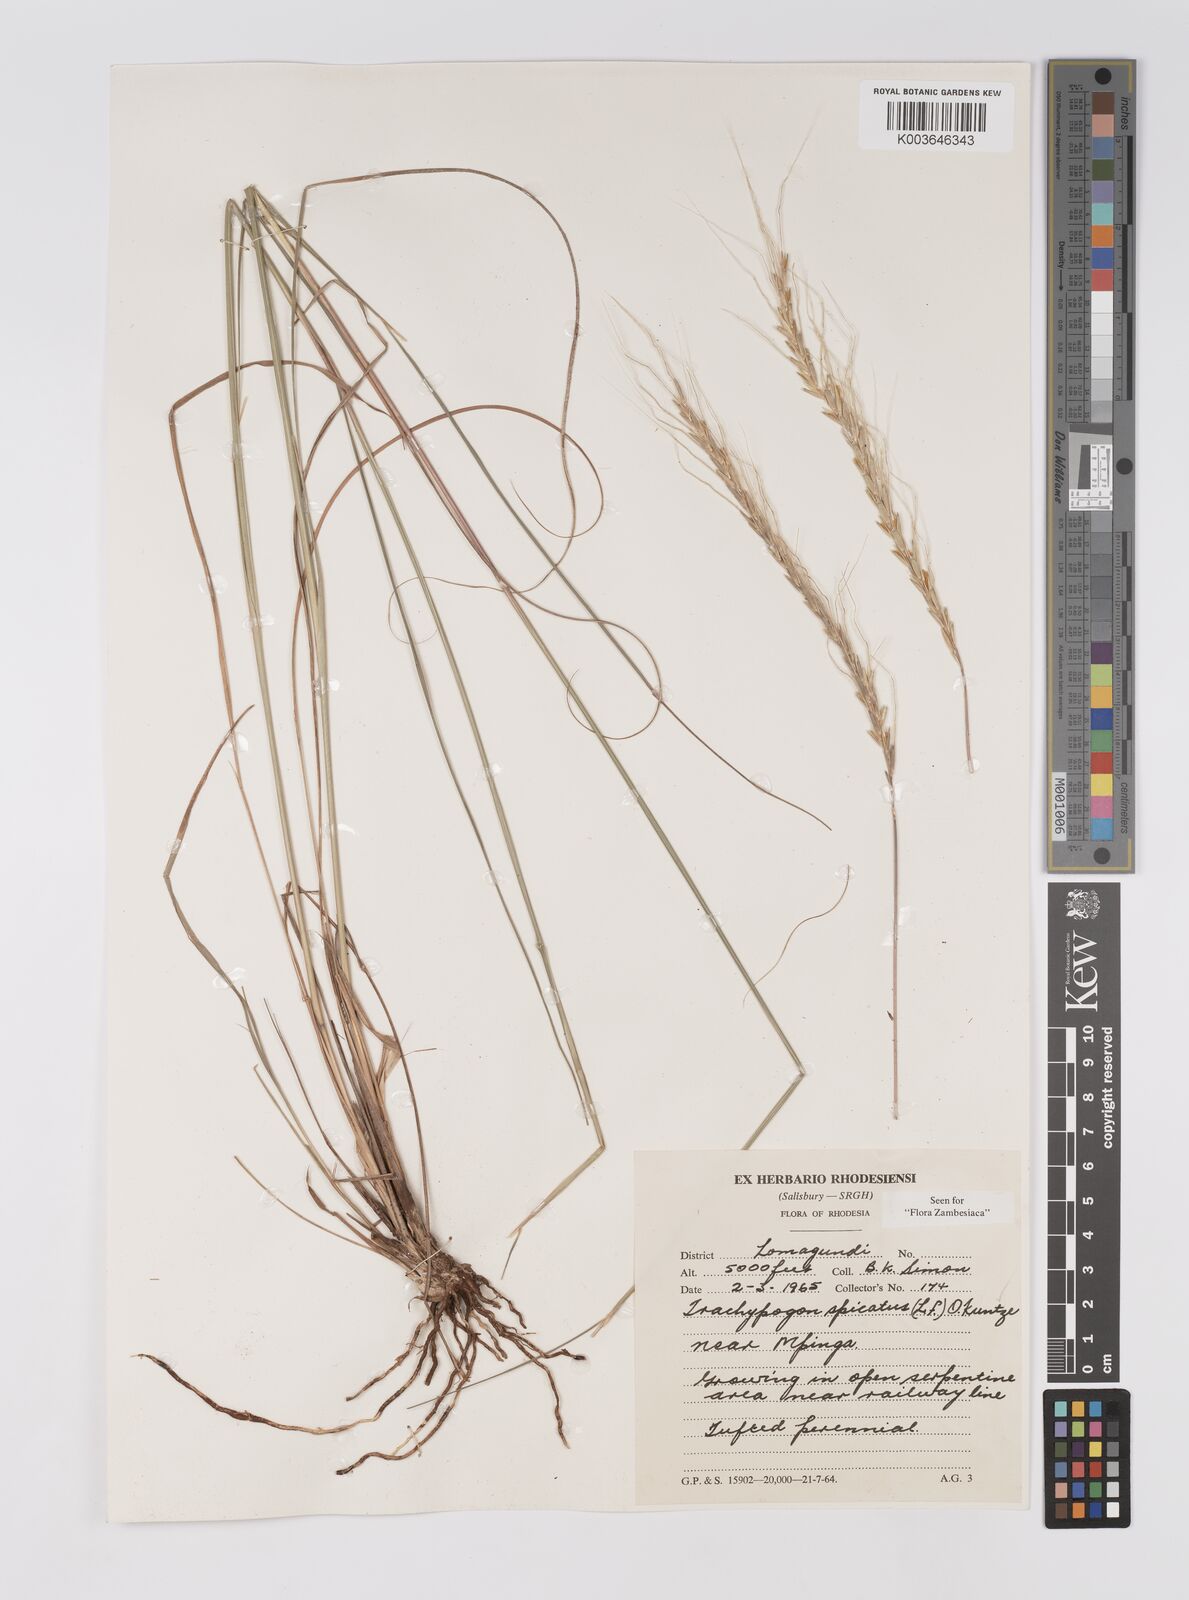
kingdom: Plantae
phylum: Tracheophyta
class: Liliopsida
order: Poales
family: Poaceae
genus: Trachypogon
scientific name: Trachypogon spicatus
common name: Crinkle-awn
